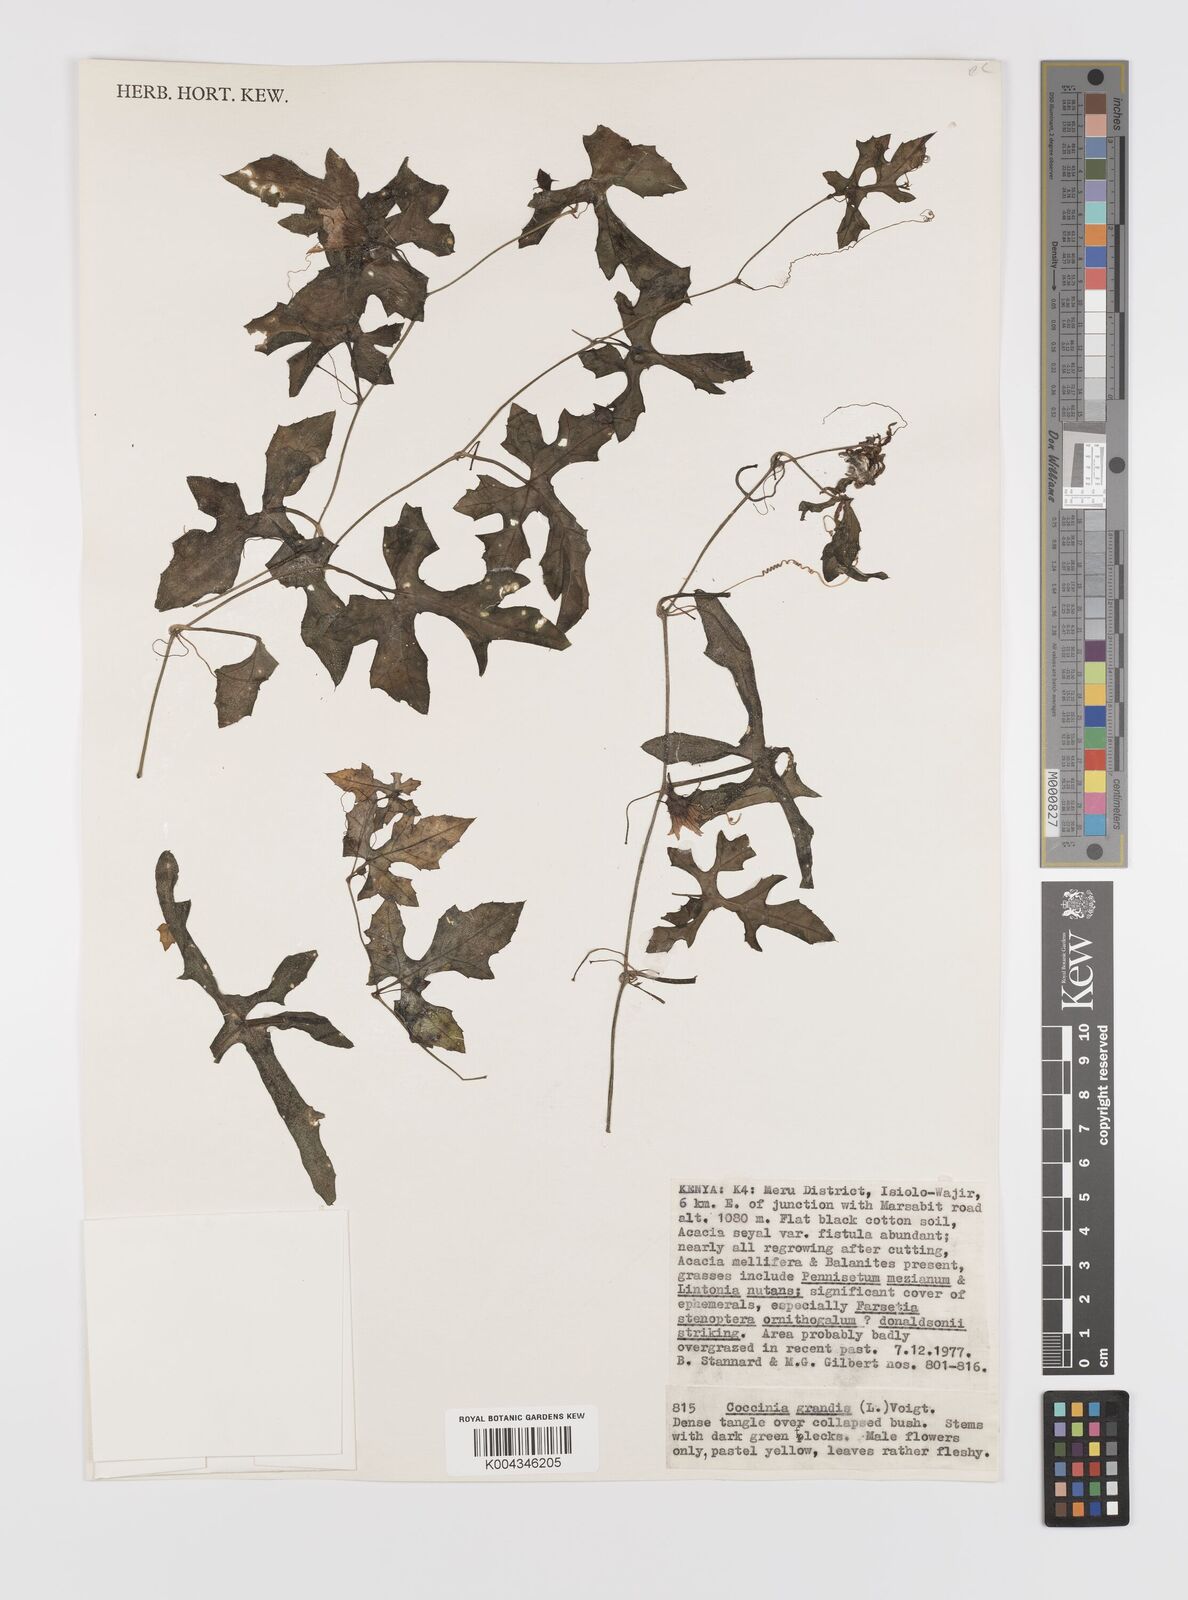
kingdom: Plantae
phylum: Tracheophyta
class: Magnoliopsida
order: Cucurbitales
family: Cucurbitaceae
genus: Coccinia
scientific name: Coccinia grandis
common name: Ivy gourd
